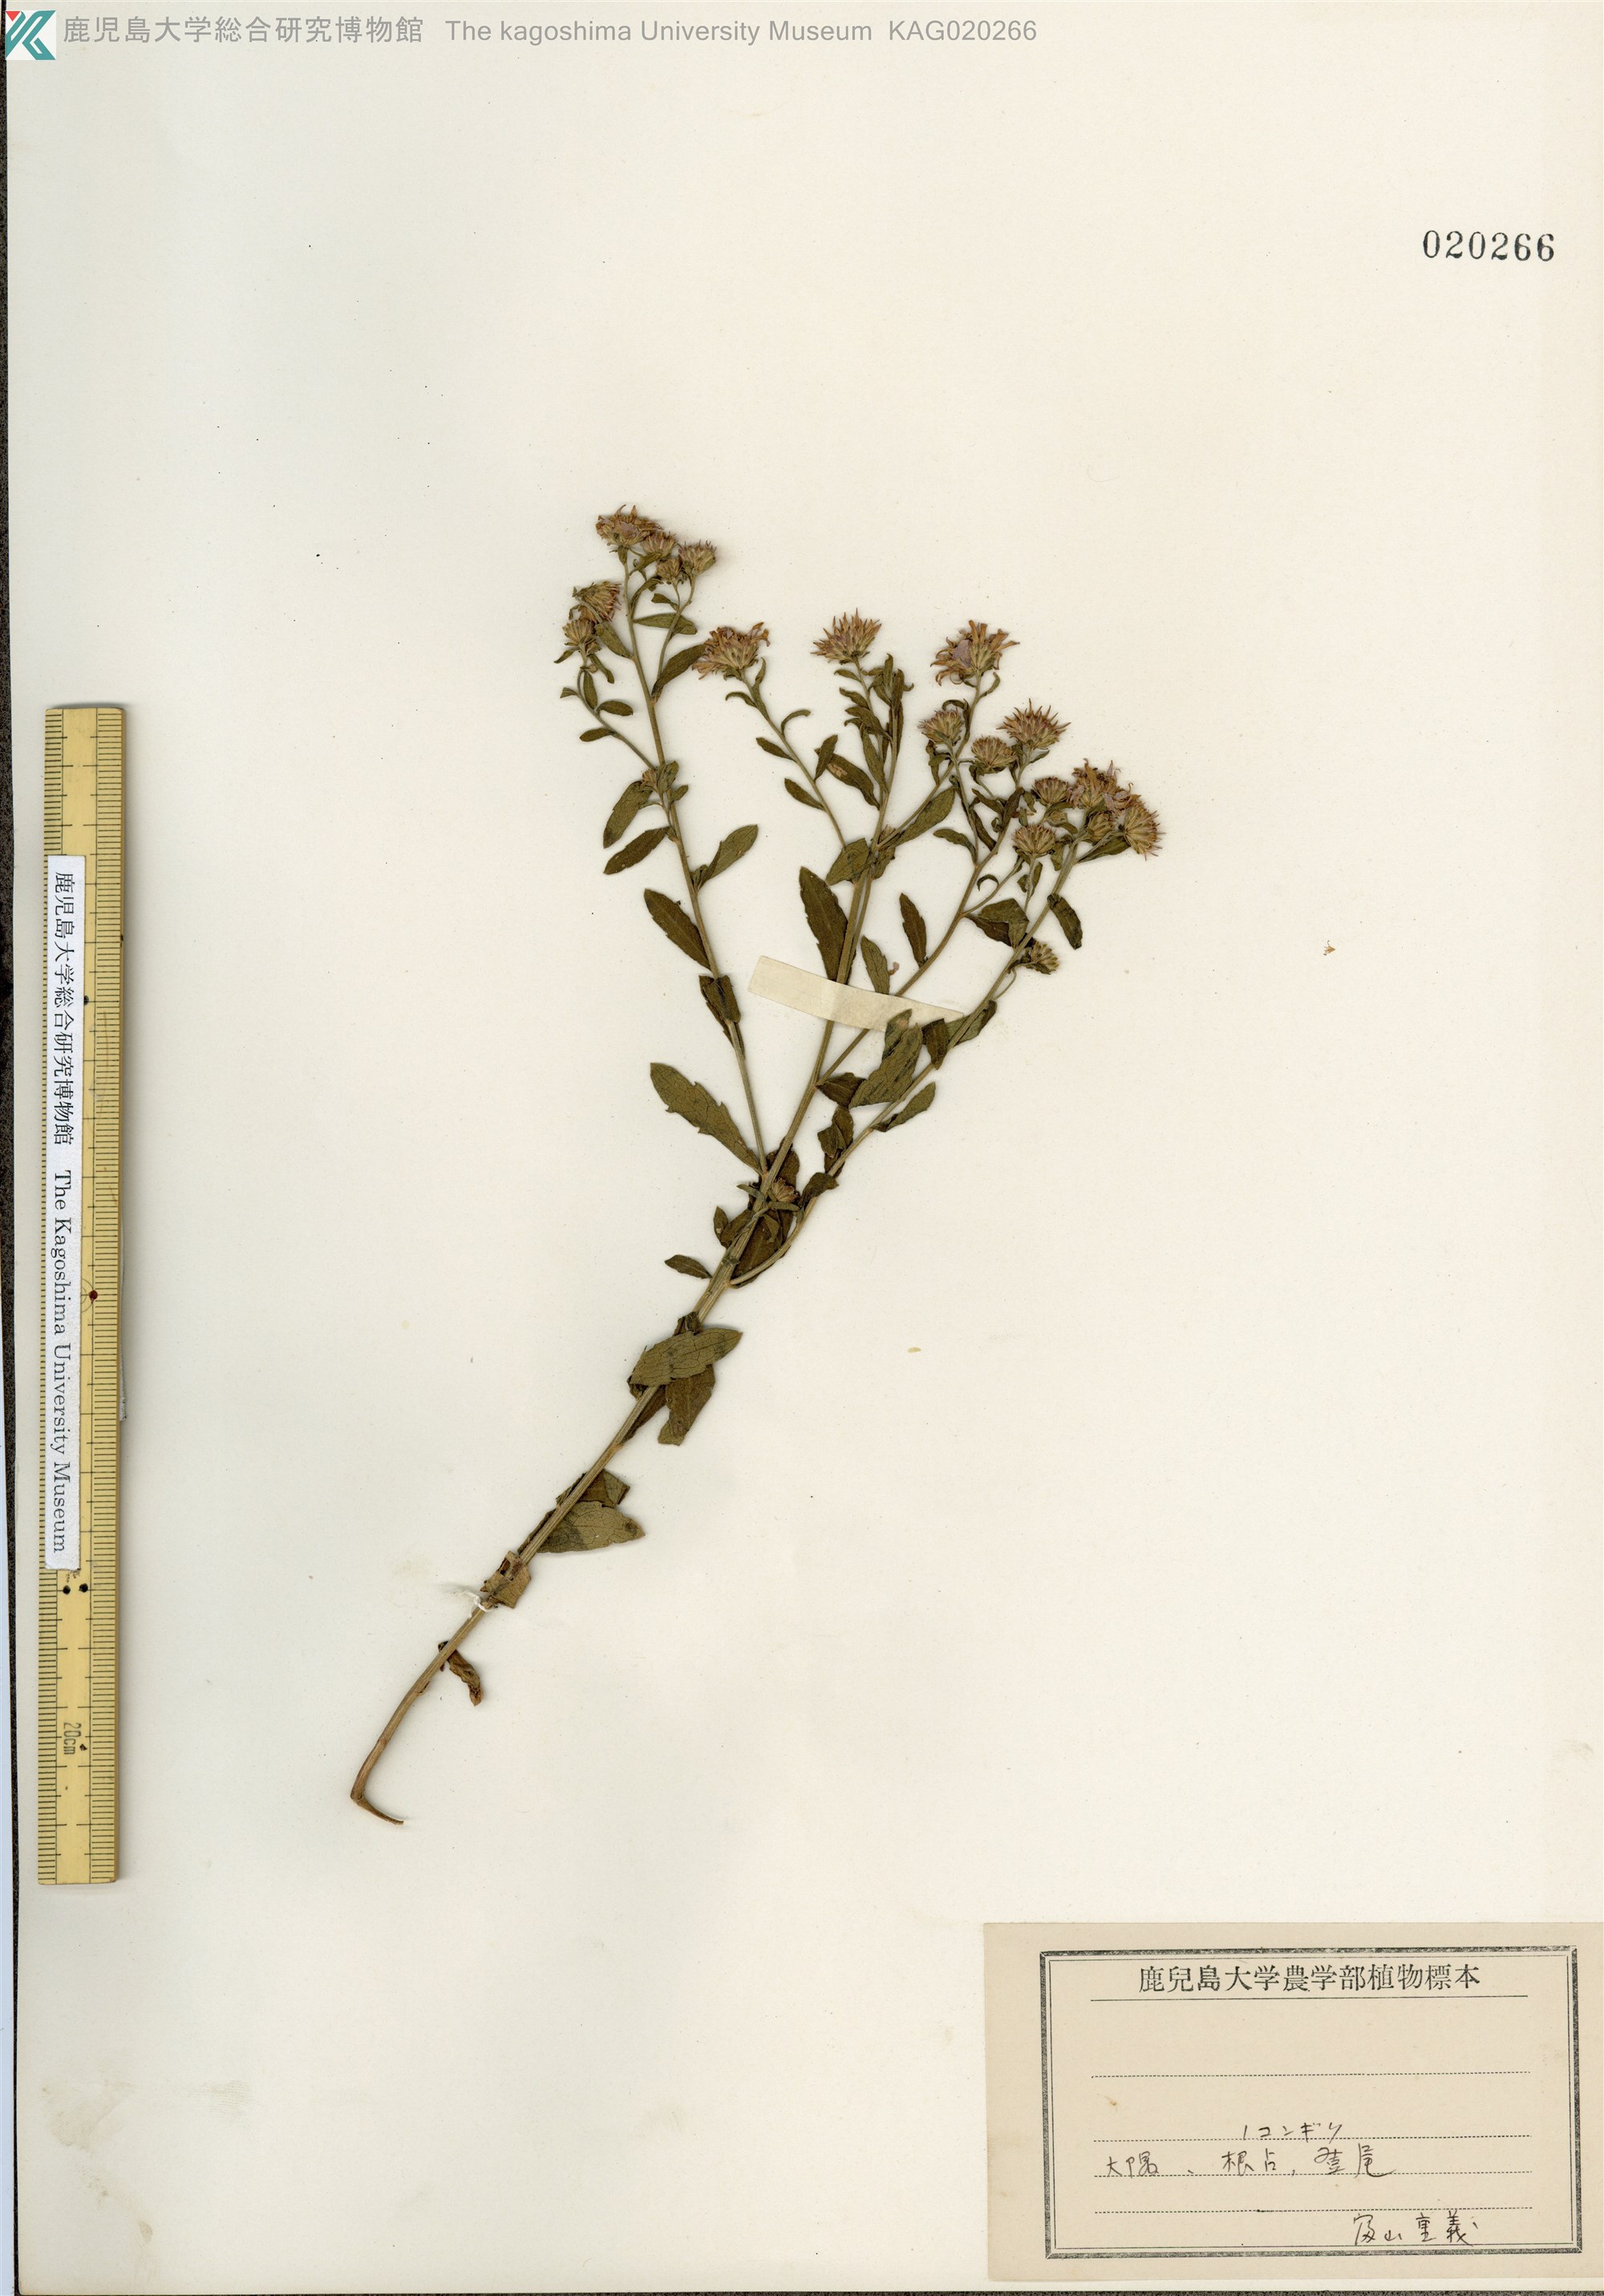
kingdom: Plantae
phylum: Tracheophyta
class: Magnoliopsida
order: Asterales
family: Asteraceae
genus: Aster
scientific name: Aster microcephalus
